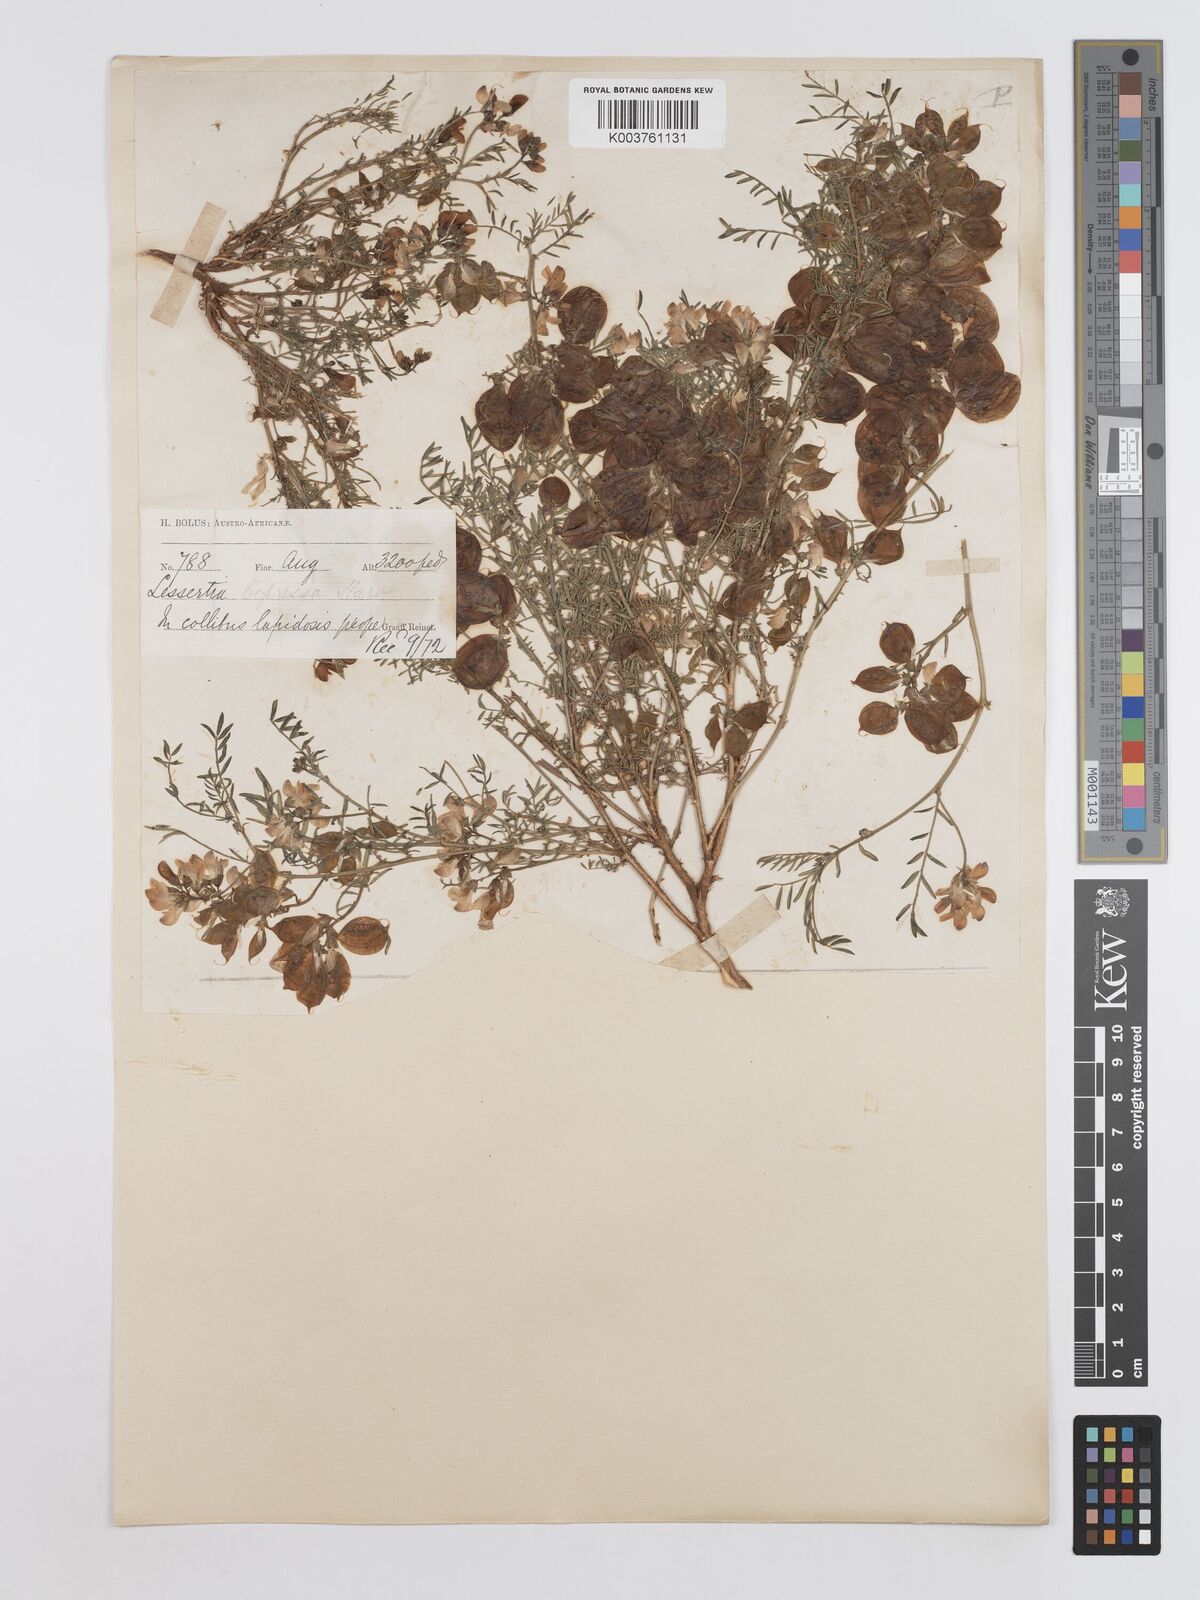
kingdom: Plantae
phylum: Tracheophyta
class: Magnoliopsida
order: Fabales
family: Fabaceae
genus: Lessertia
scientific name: Lessertia depressa
